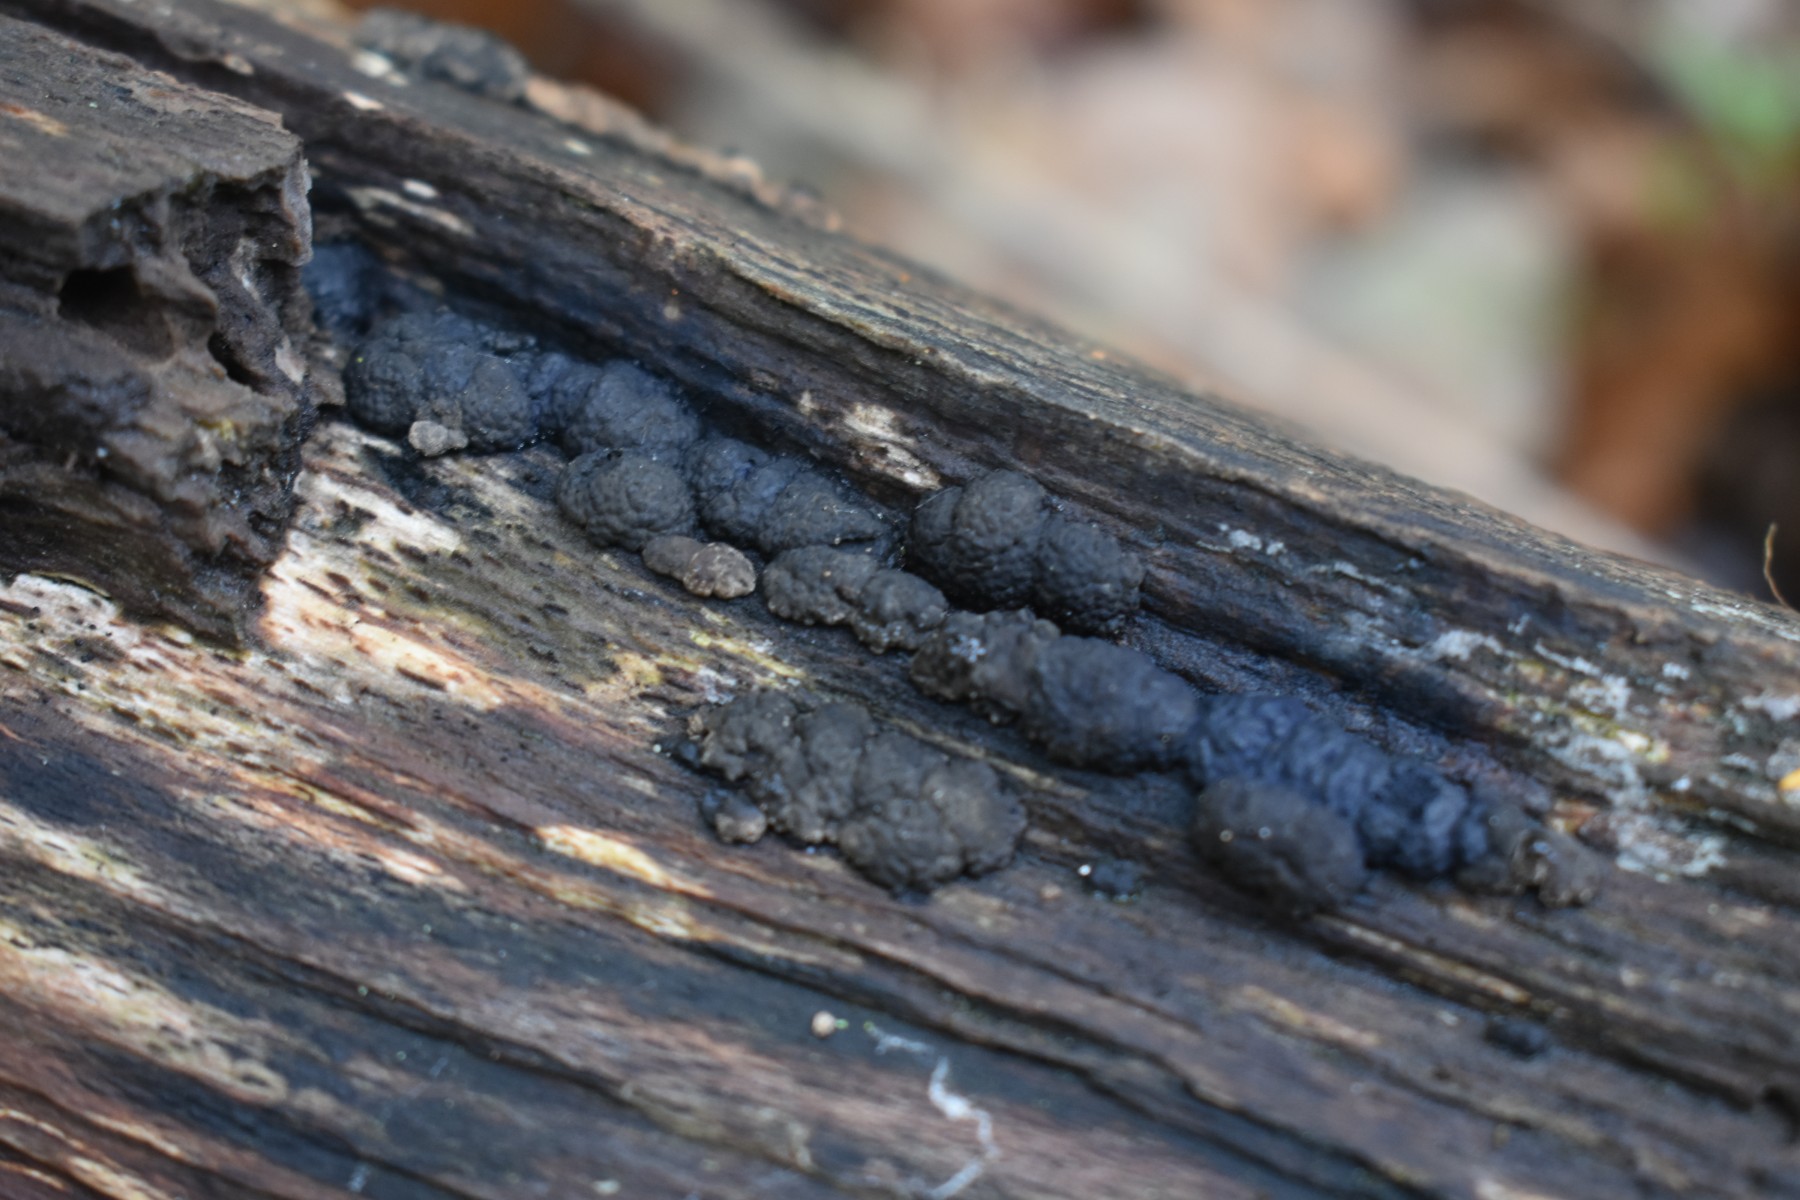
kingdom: Fungi
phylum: Ascomycota
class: Sordariomycetes
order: Xylariales
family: Hypoxylaceae
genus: Jackrogersella
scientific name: Jackrogersella cohaerens
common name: sammenflydende kulbær
